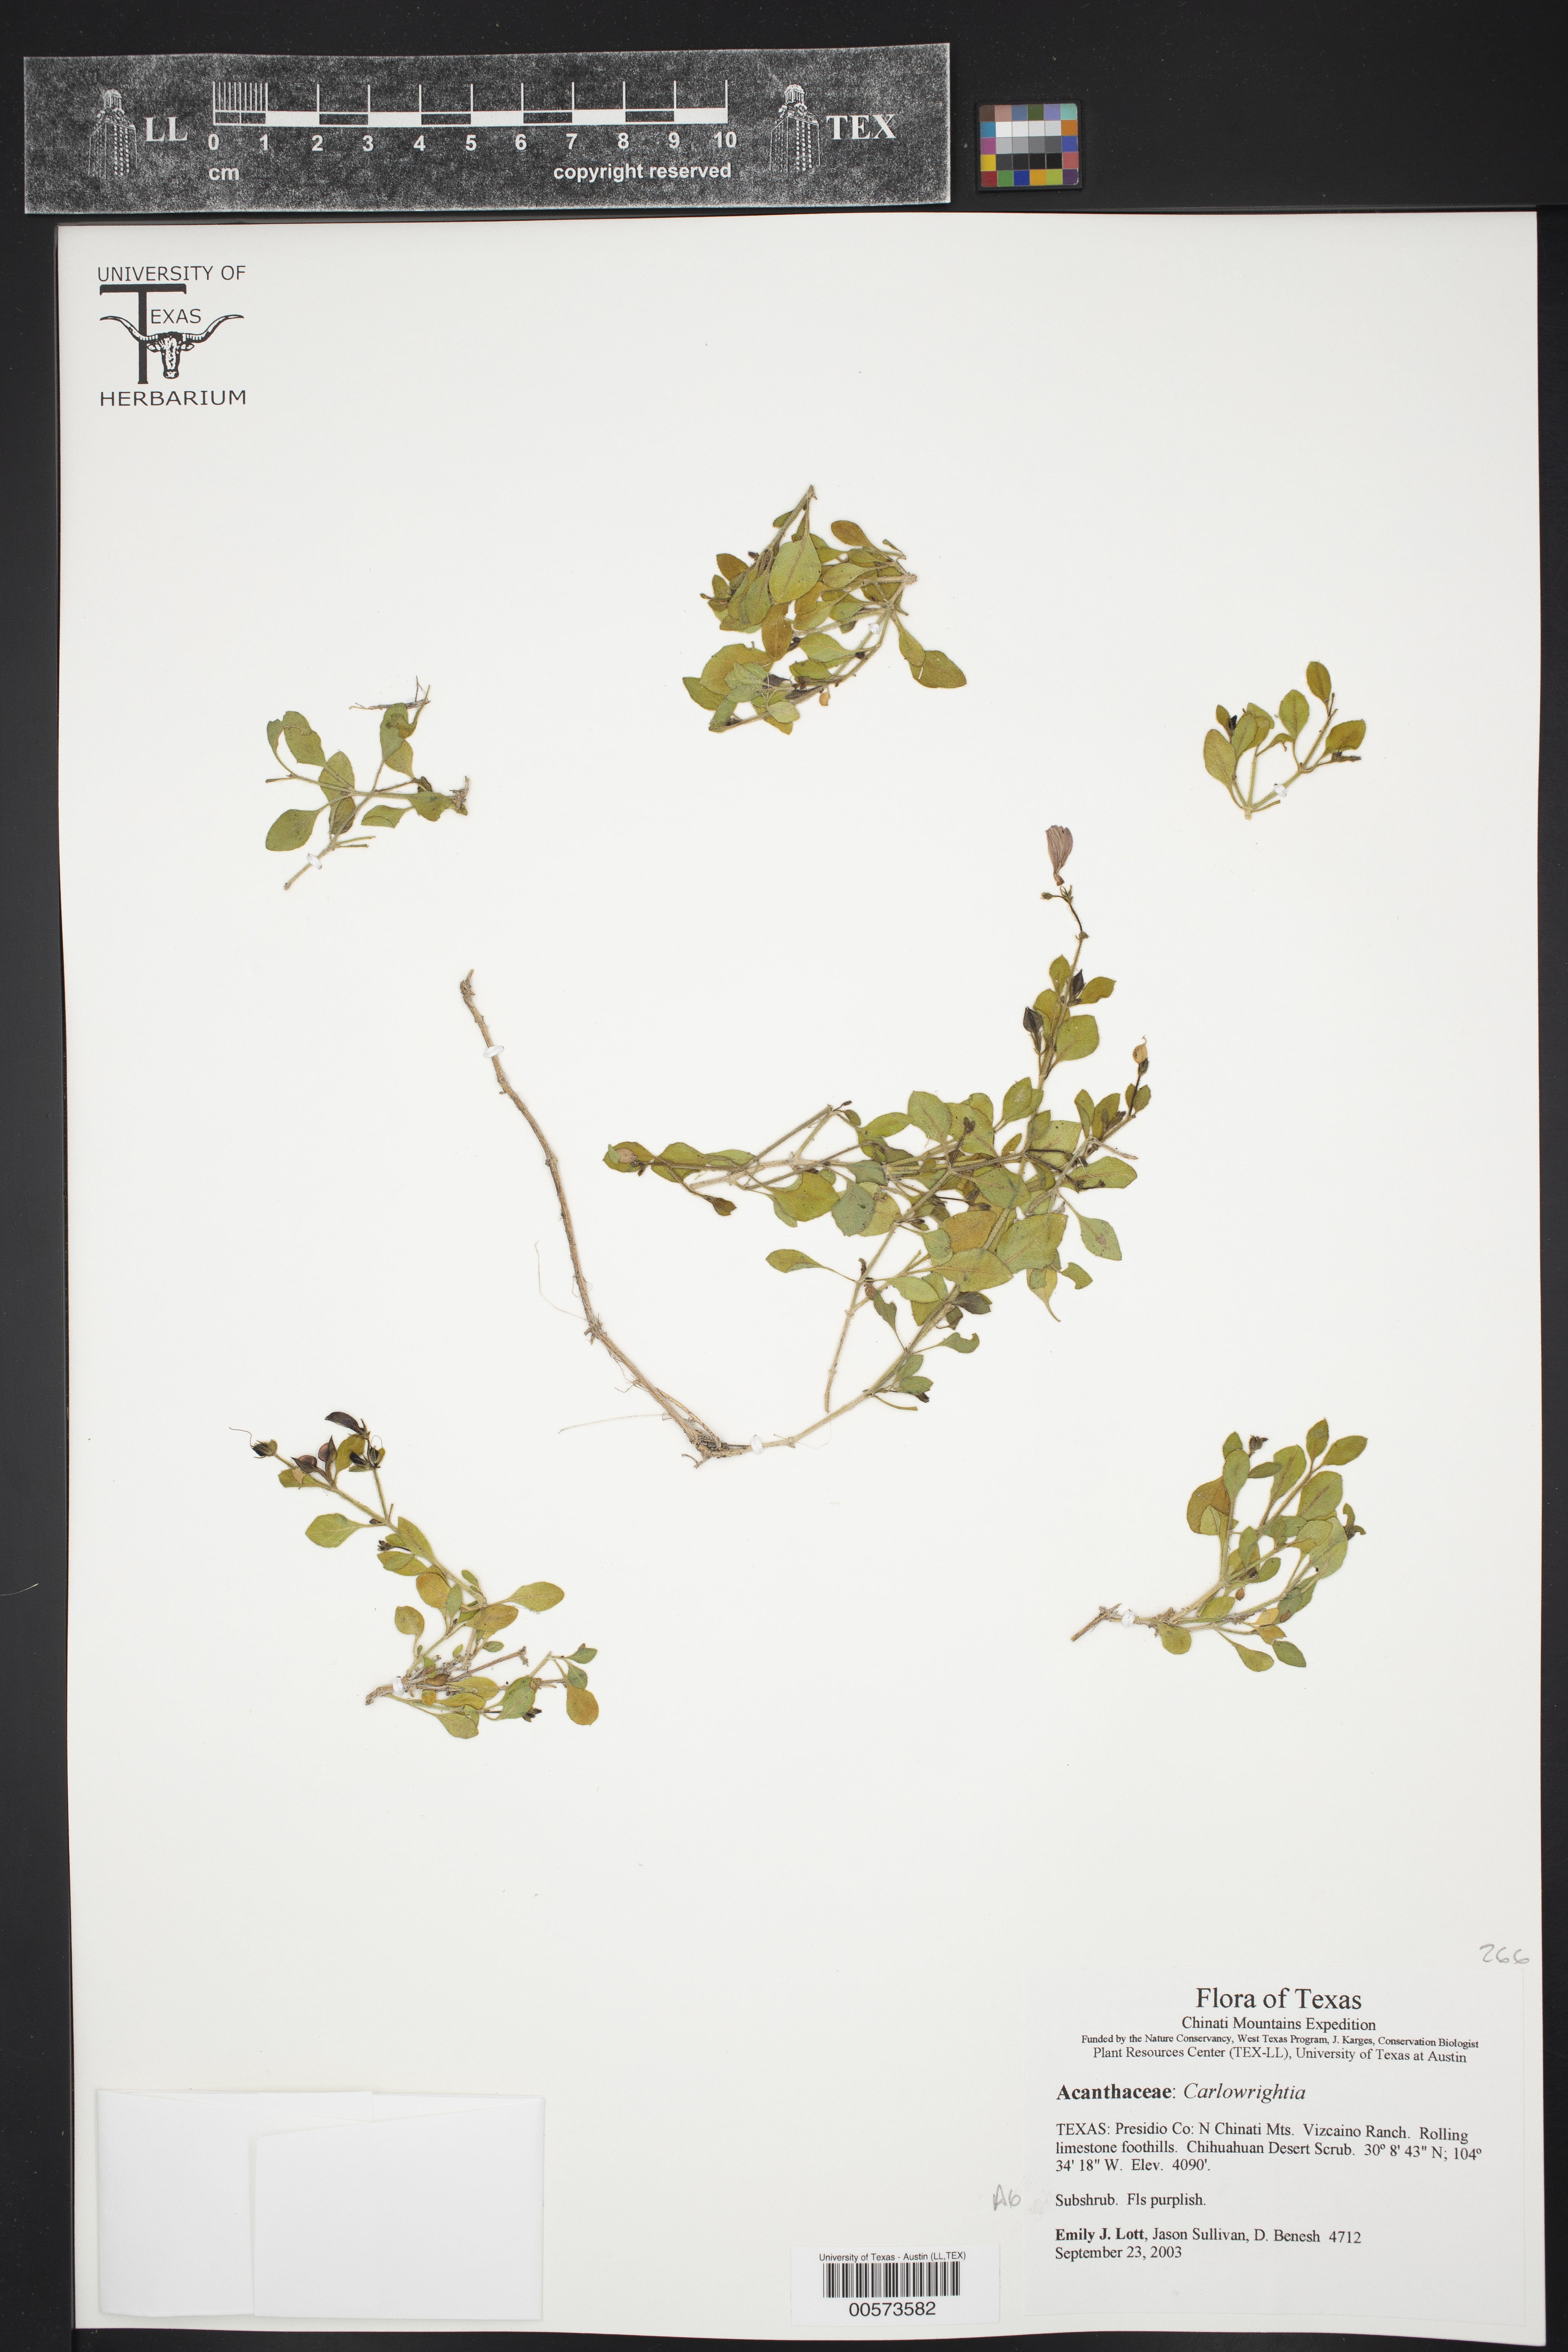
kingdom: Plantae
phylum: Tracheophyta
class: Magnoliopsida
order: Lamiales
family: Acanthaceae
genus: Carlowrightia
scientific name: Carlowrightia
